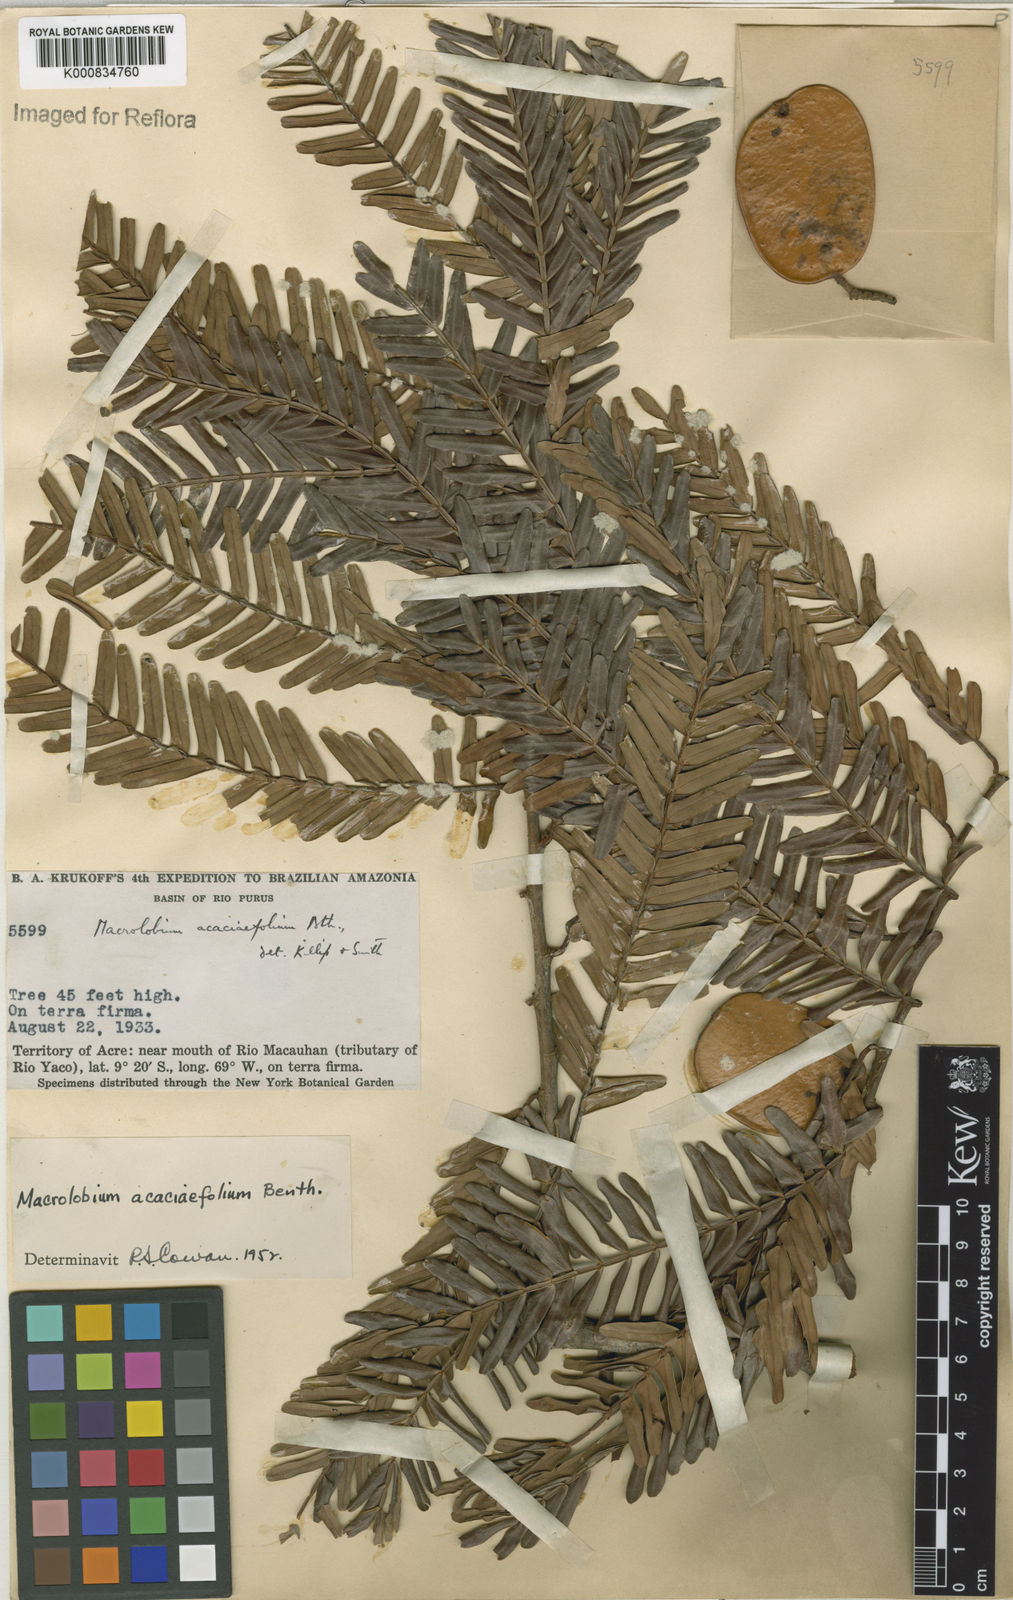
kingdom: Plantae
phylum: Tracheophyta
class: Magnoliopsida
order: Fabales
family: Fabaceae
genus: Macrolobium
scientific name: Macrolobium acaciifolium
